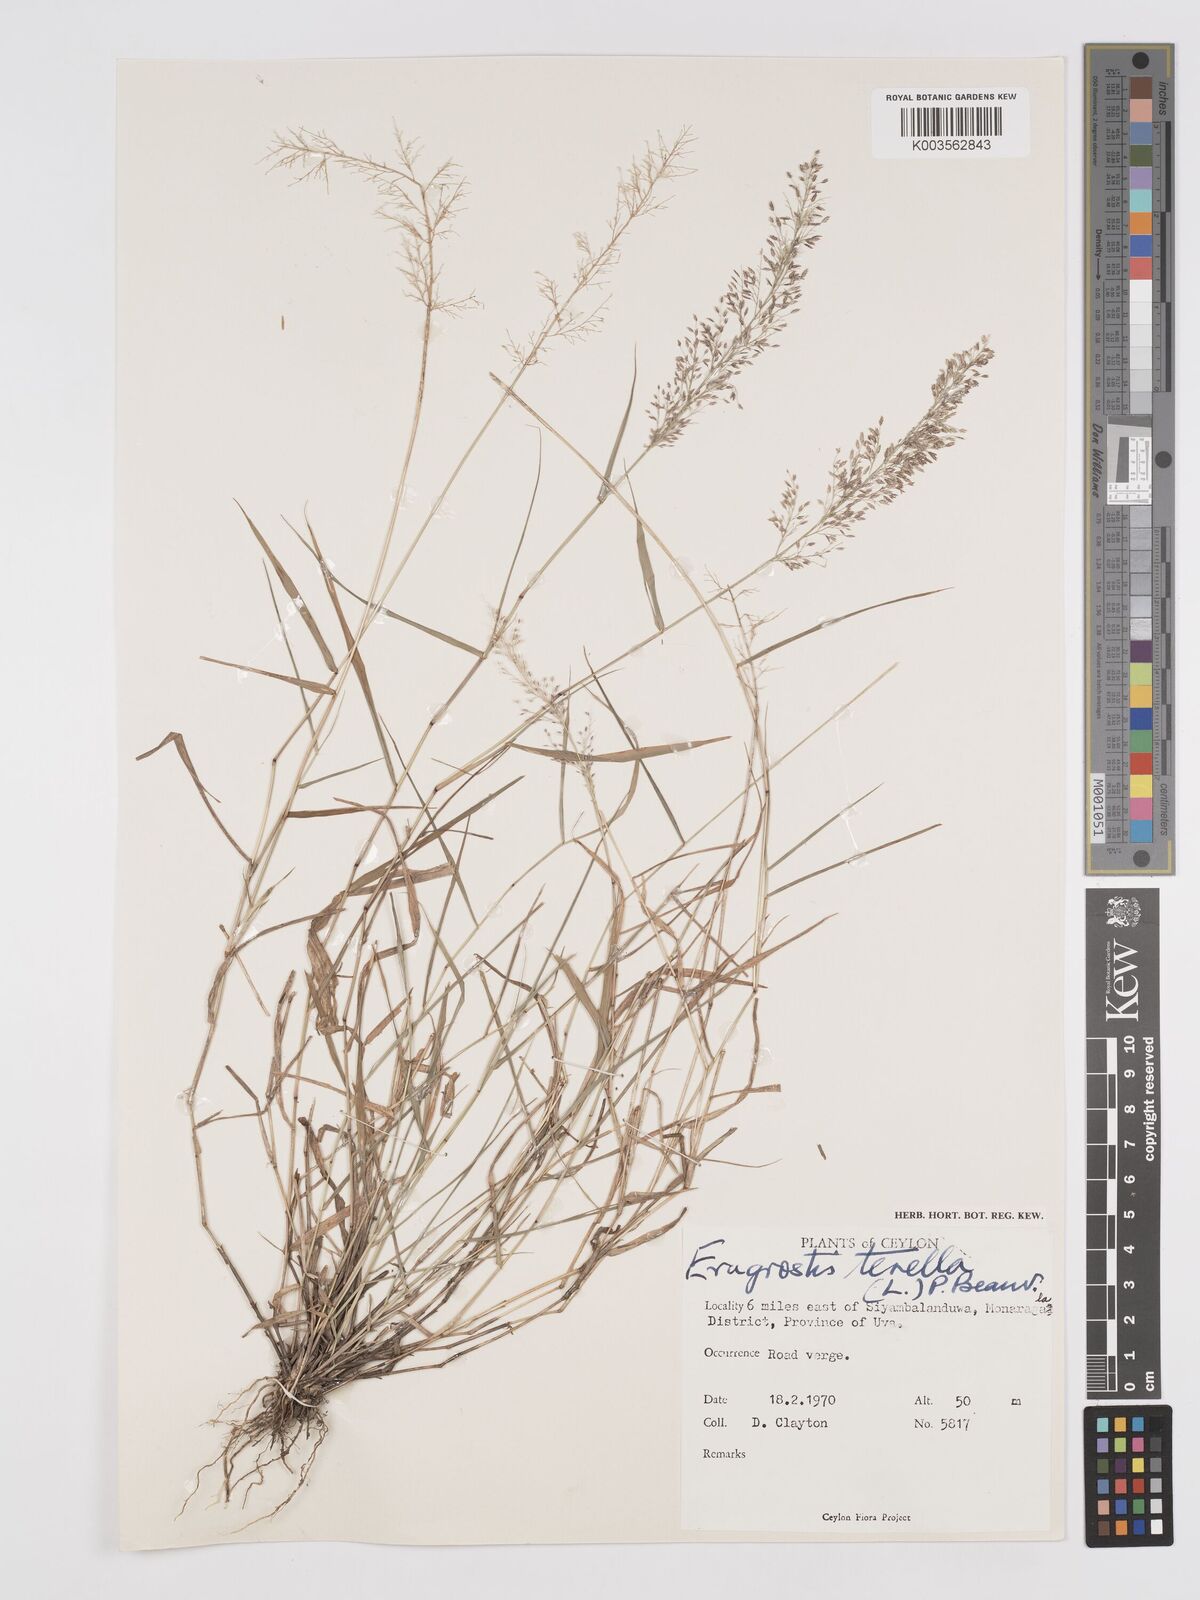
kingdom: Plantae
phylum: Tracheophyta
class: Liliopsida
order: Poales
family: Poaceae
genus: Eragrostis
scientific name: Eragrostis viscosa
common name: Sticky love grass
